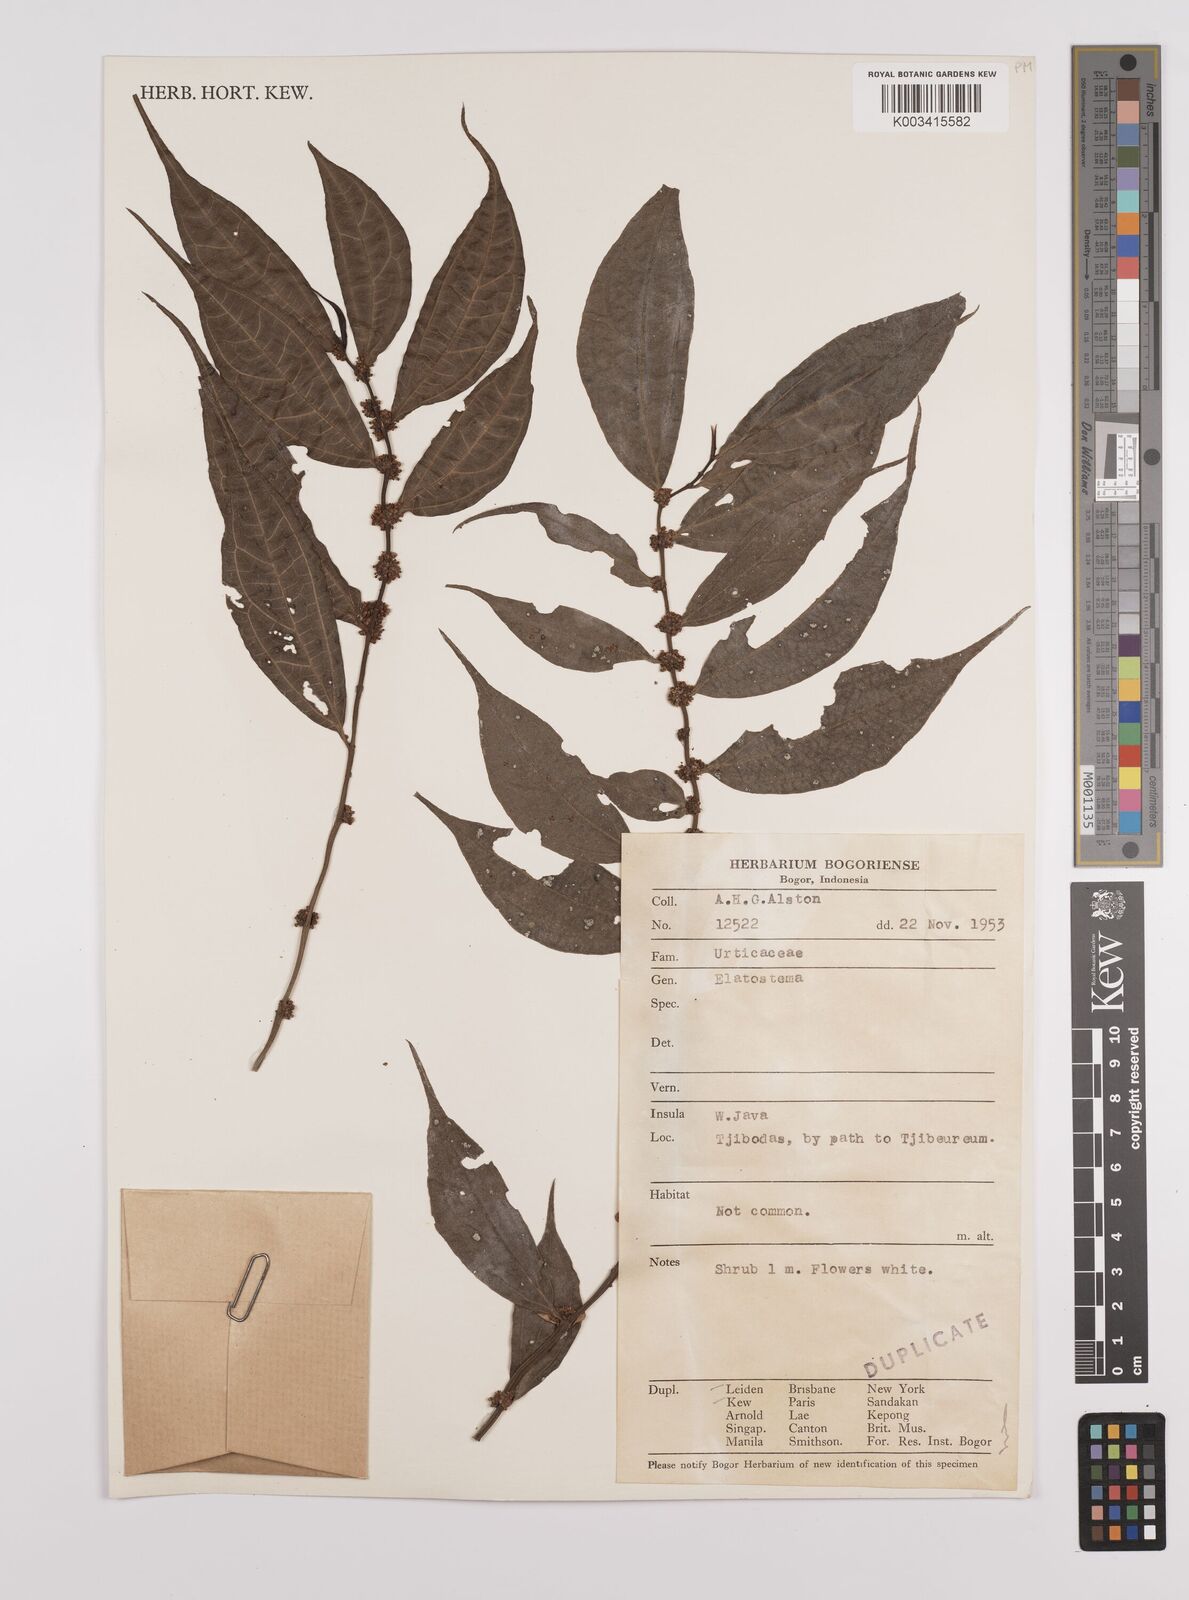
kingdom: Plantae
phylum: Tracheophyta
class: Magnoliopsida
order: Rosales
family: Urticaceae
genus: Elatostema
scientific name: Elatostema
